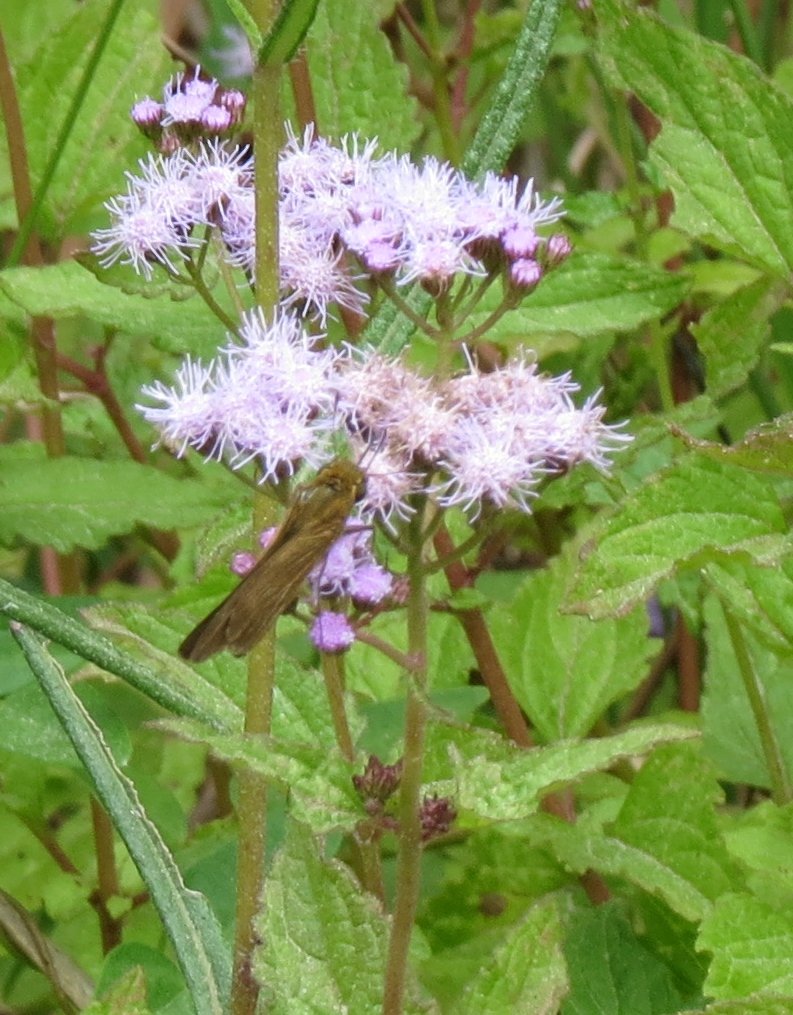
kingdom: Animalia
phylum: Arthropoda
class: Insecta
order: Lepidoptera
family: Hesperiidae
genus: Panoquina
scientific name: Panoquina ocola
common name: Ocola Skipper
